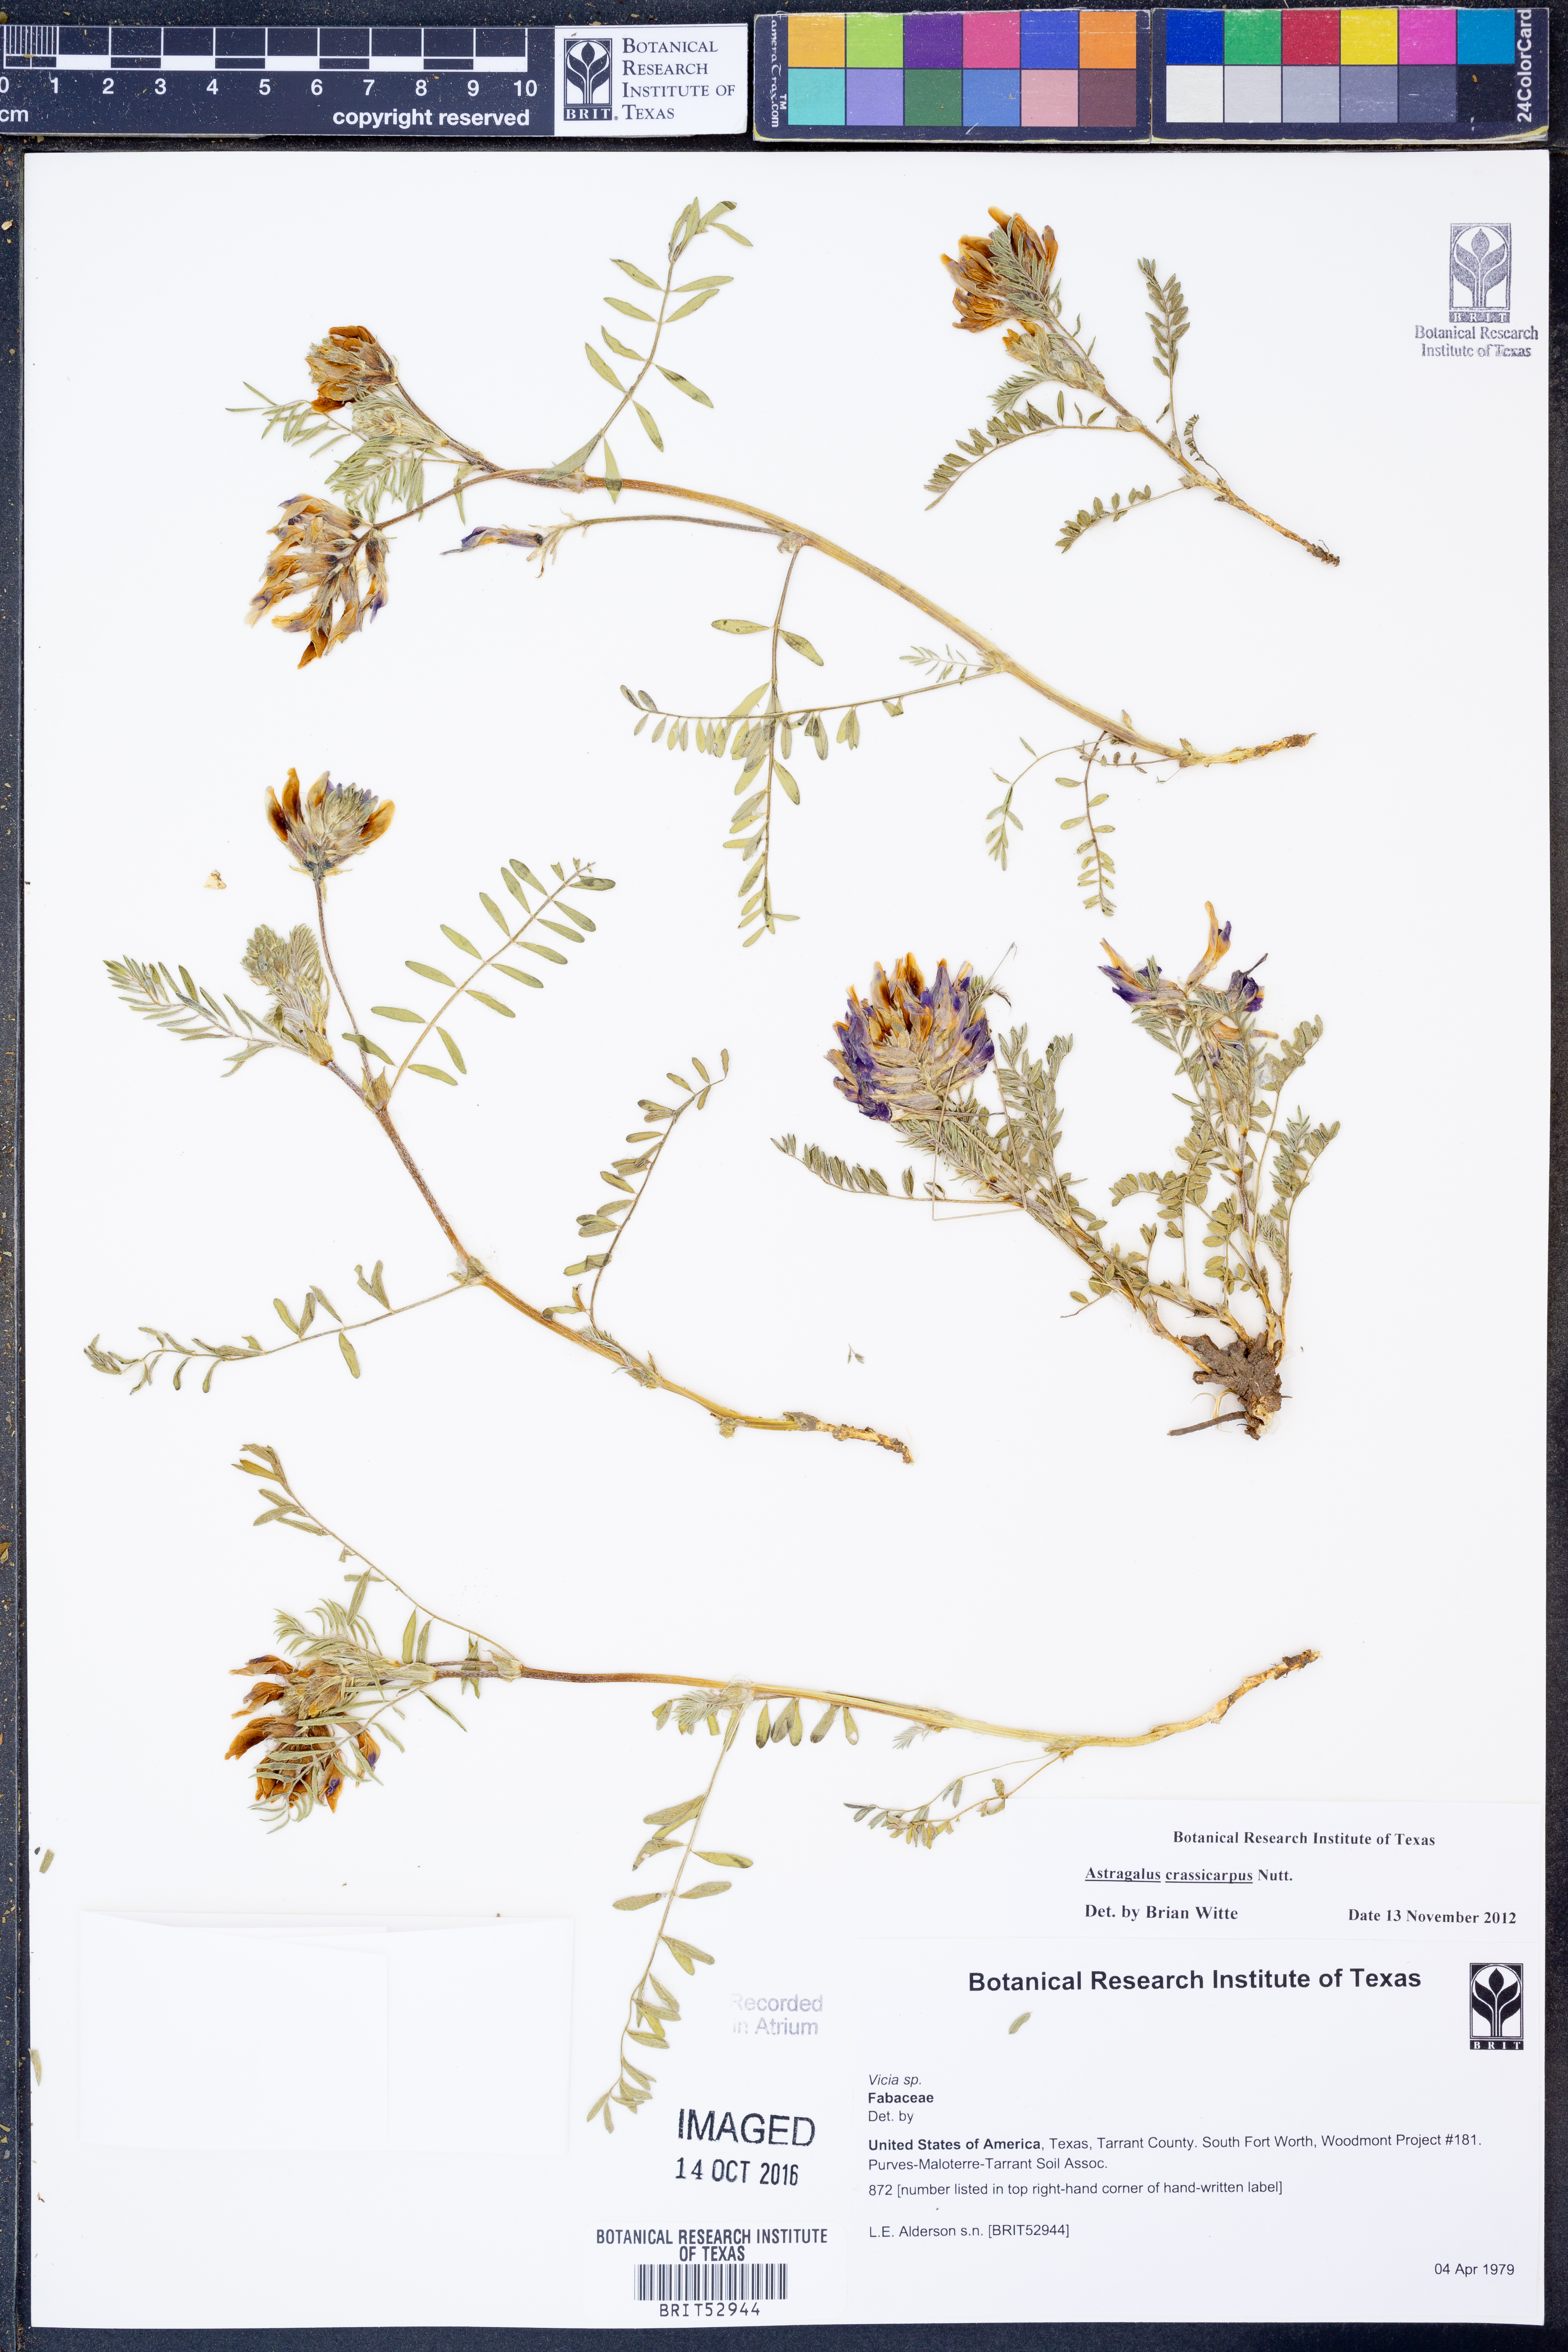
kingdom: Plantae
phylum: Tracheophyta
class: Magnoliopsida
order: Fabales
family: Fabaceae
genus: Vicia
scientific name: Vicia
